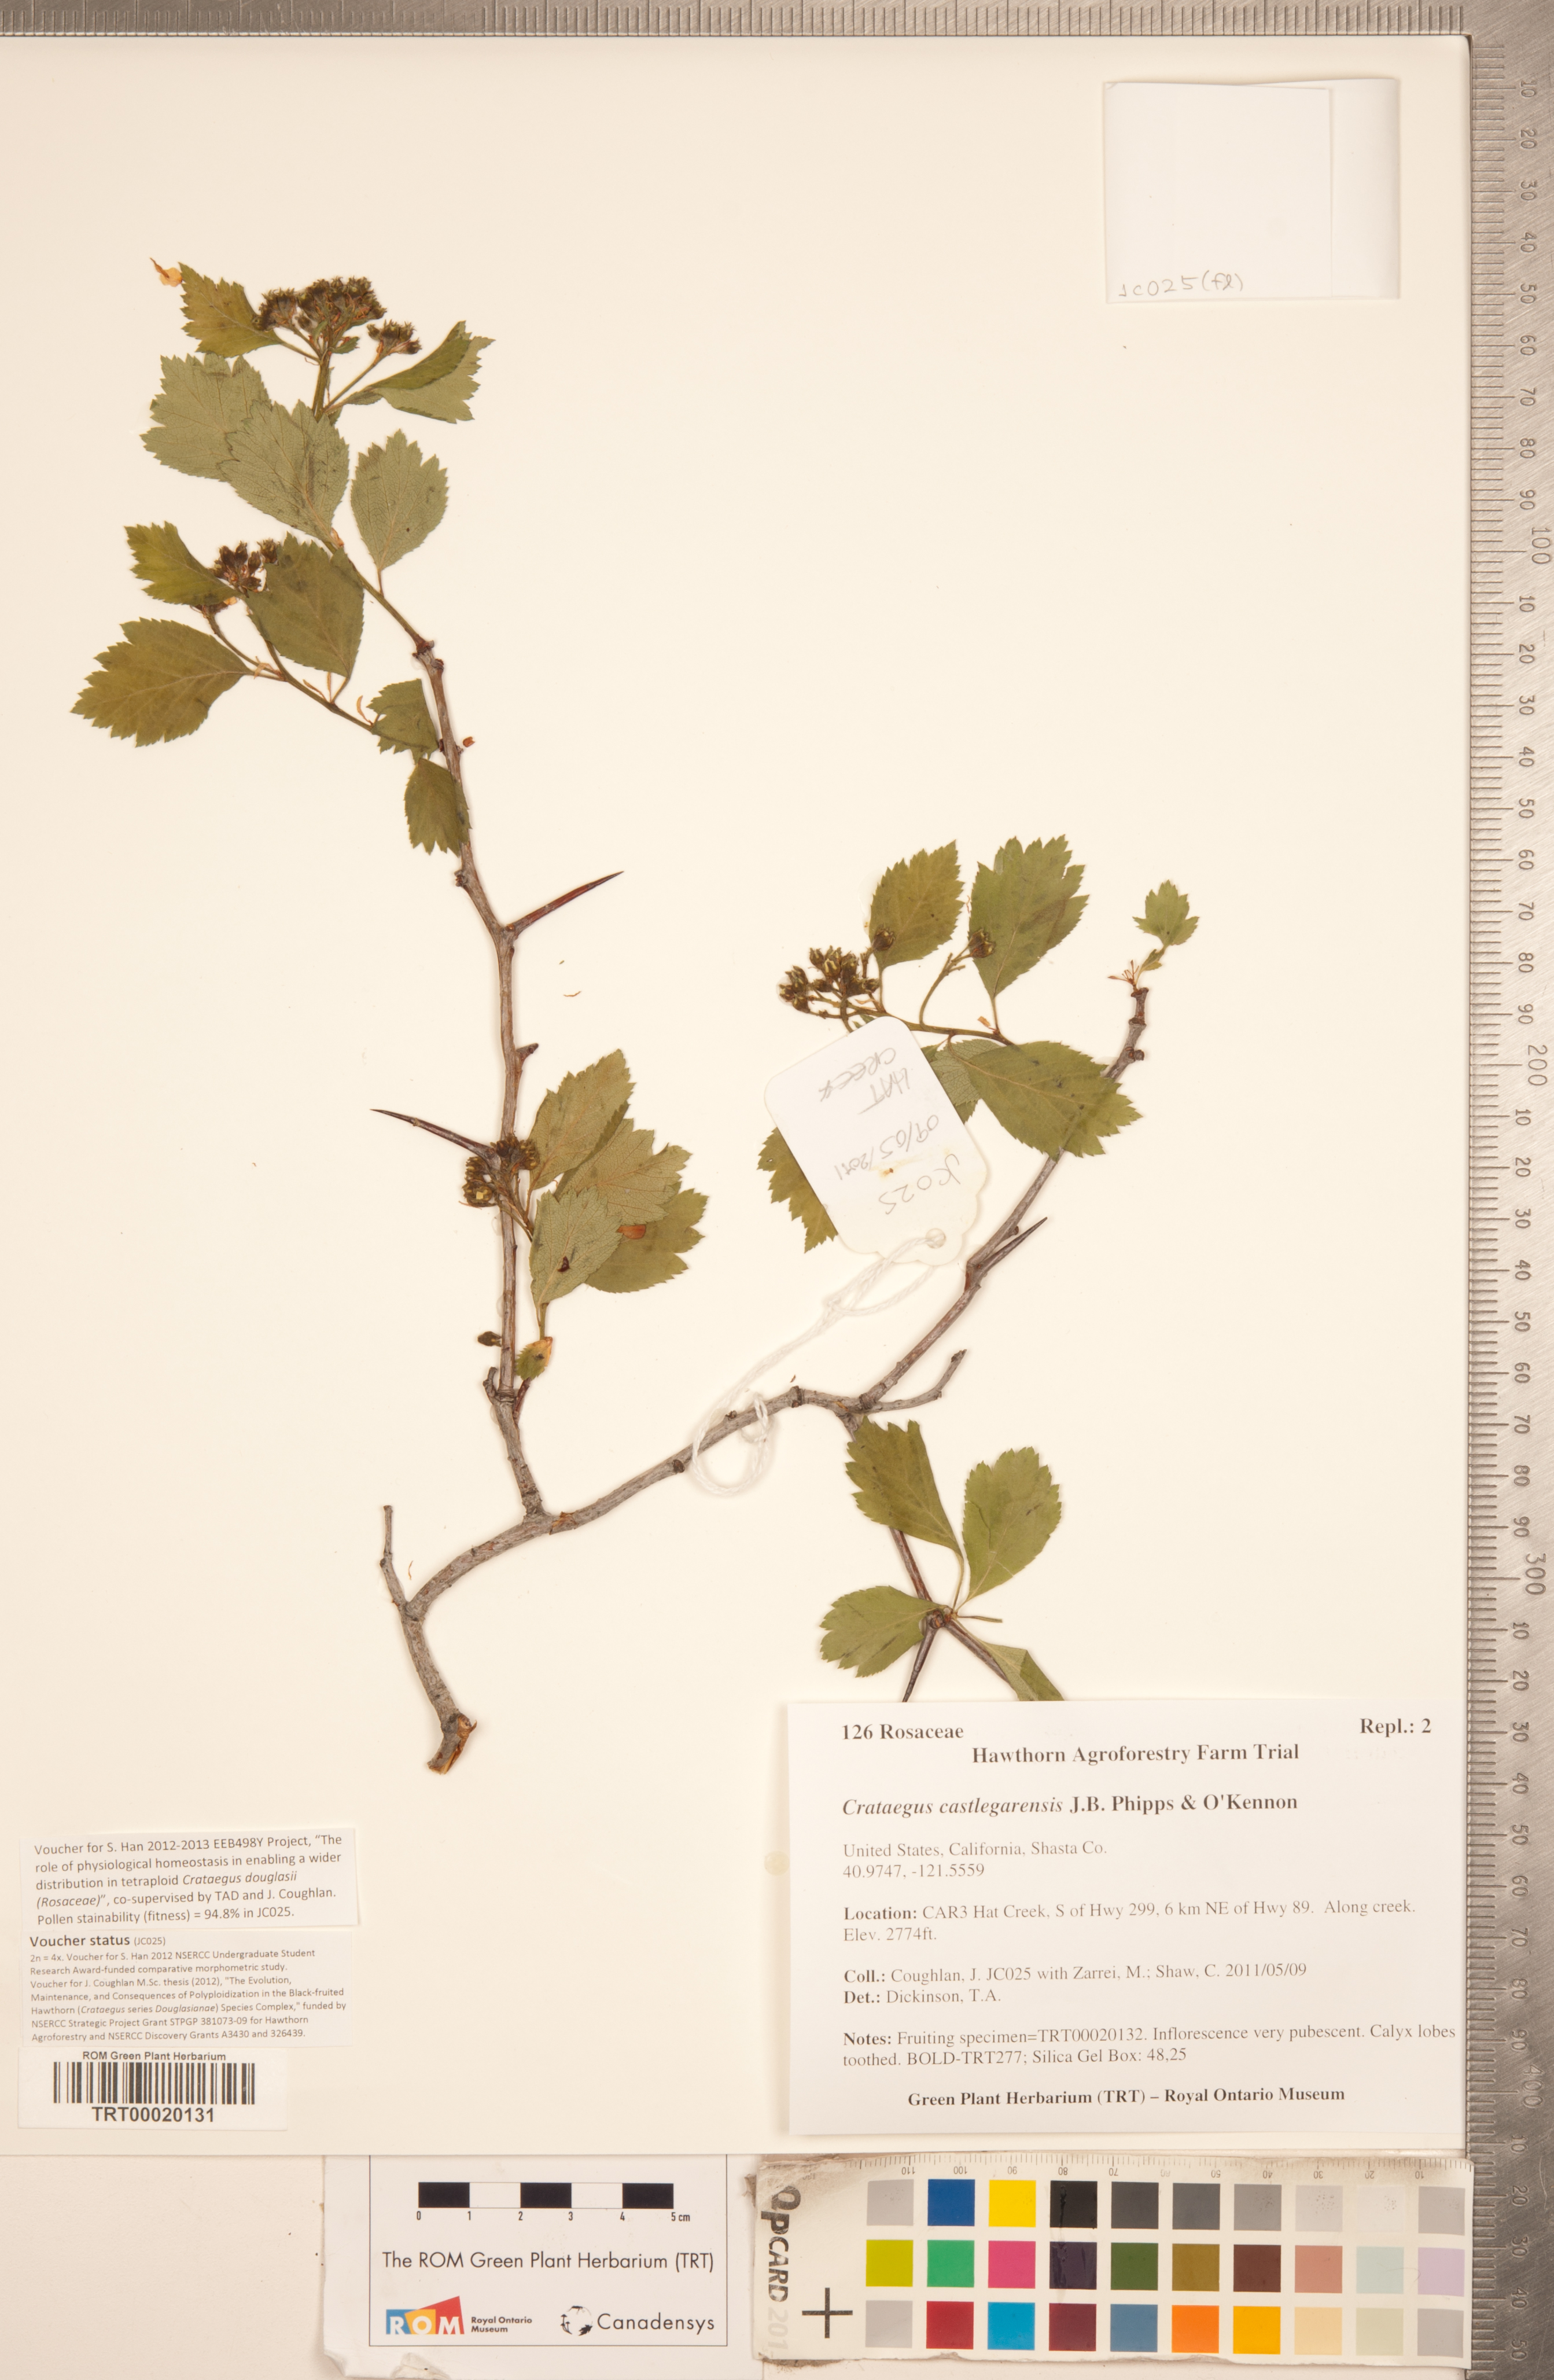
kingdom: Plantae
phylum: Tracheophyta
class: Magnoliopsida
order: Rosales
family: Rosaceae
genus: Crataegus
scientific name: Crataegus castlegarensis
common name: Castlegar hawthorn
